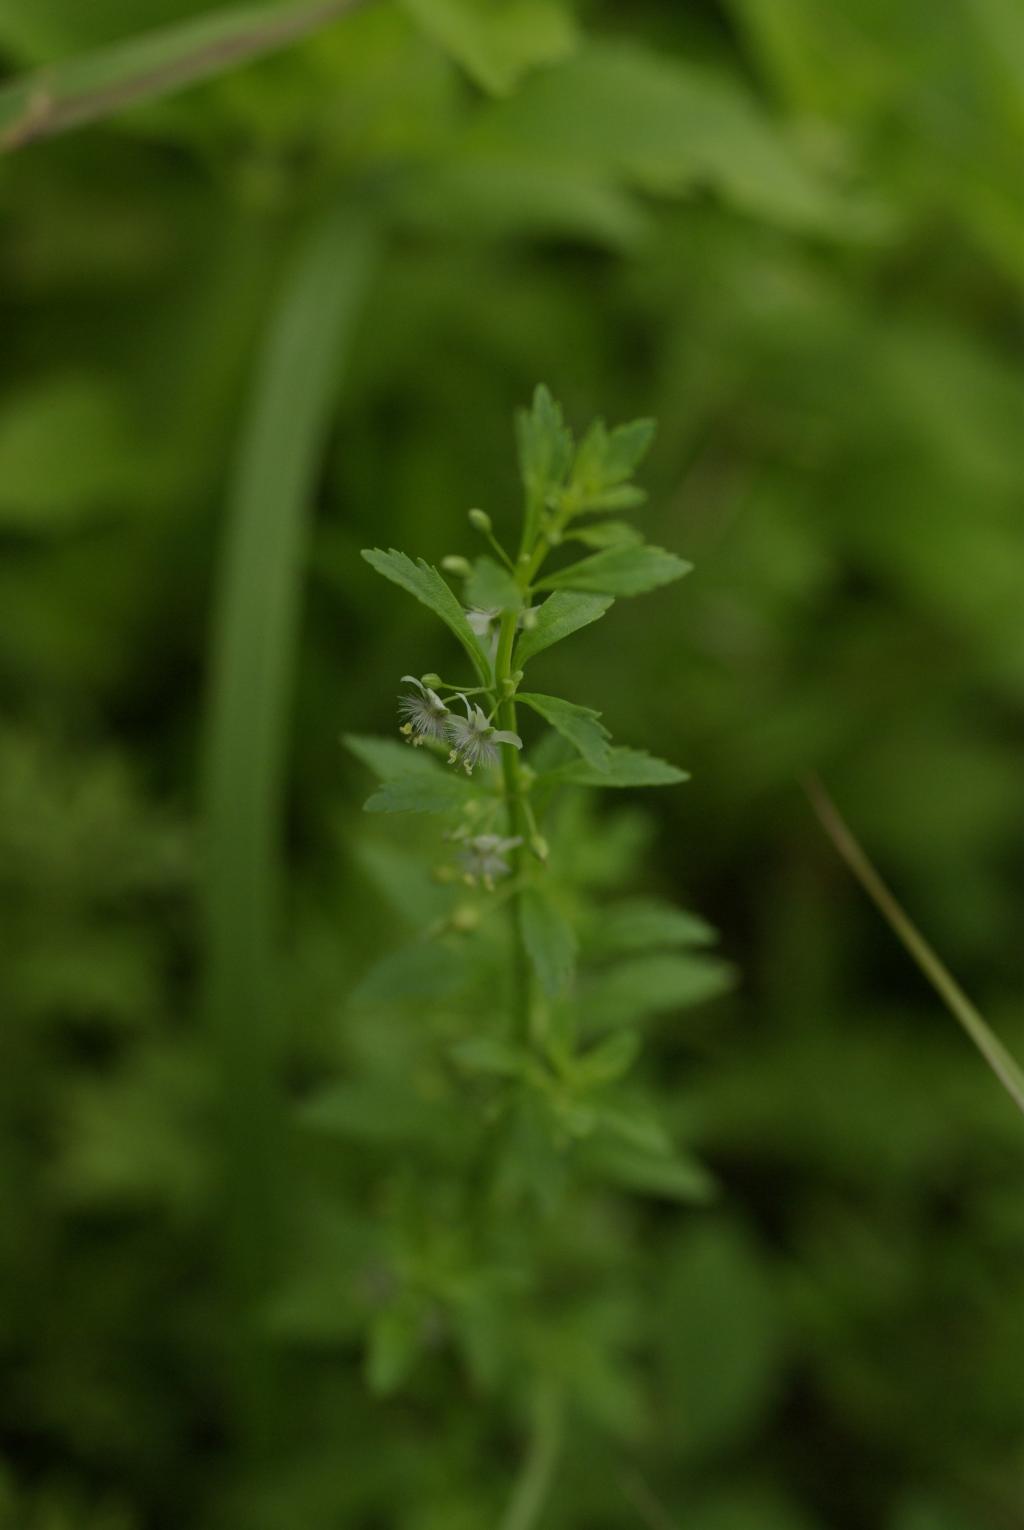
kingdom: Plantae
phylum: Tracheophyta
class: Magnoliopsida
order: Lamiales
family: Plantaginaceae
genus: Scoparia
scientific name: Scoparia dulcis
